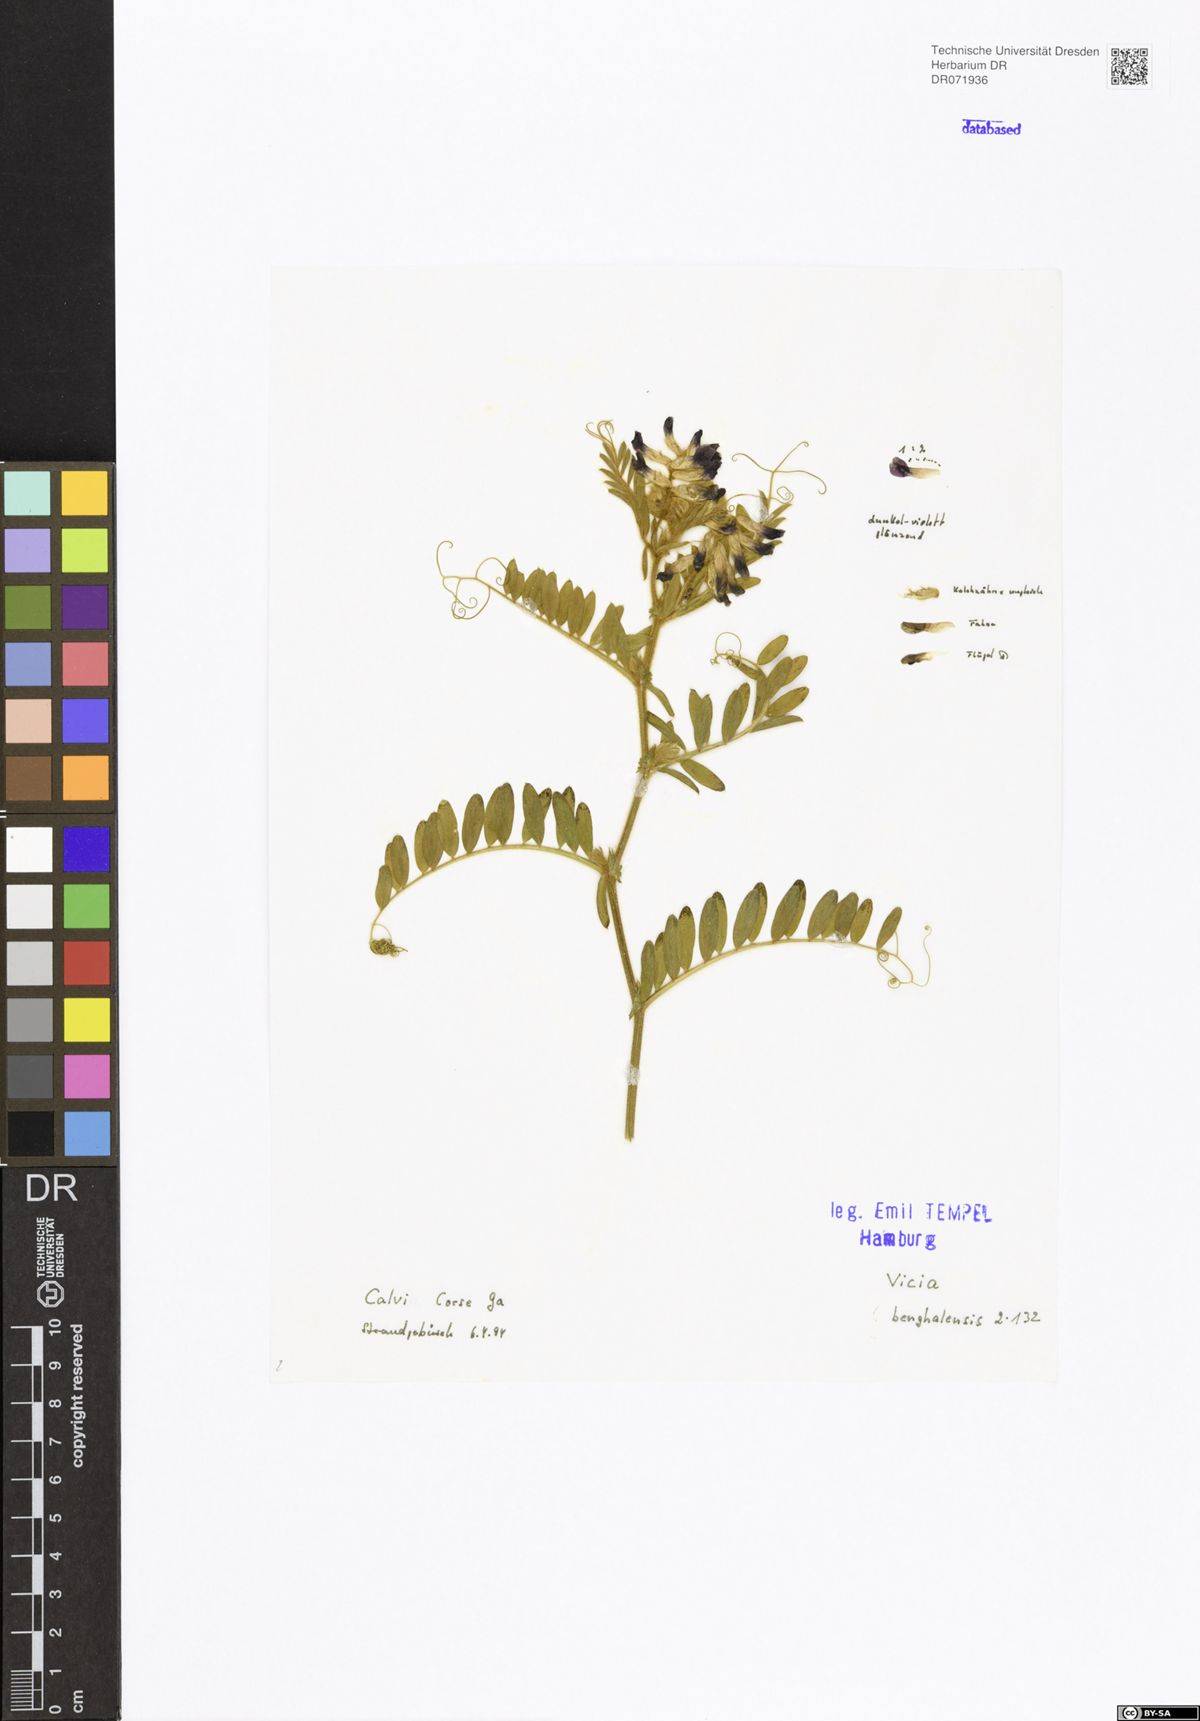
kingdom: Plantae
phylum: Tracheophyta
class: Magnoliopsida
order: Fabales
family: Fabaceae
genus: Vicia
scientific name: Vicia benghalensis
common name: Purple vetch
